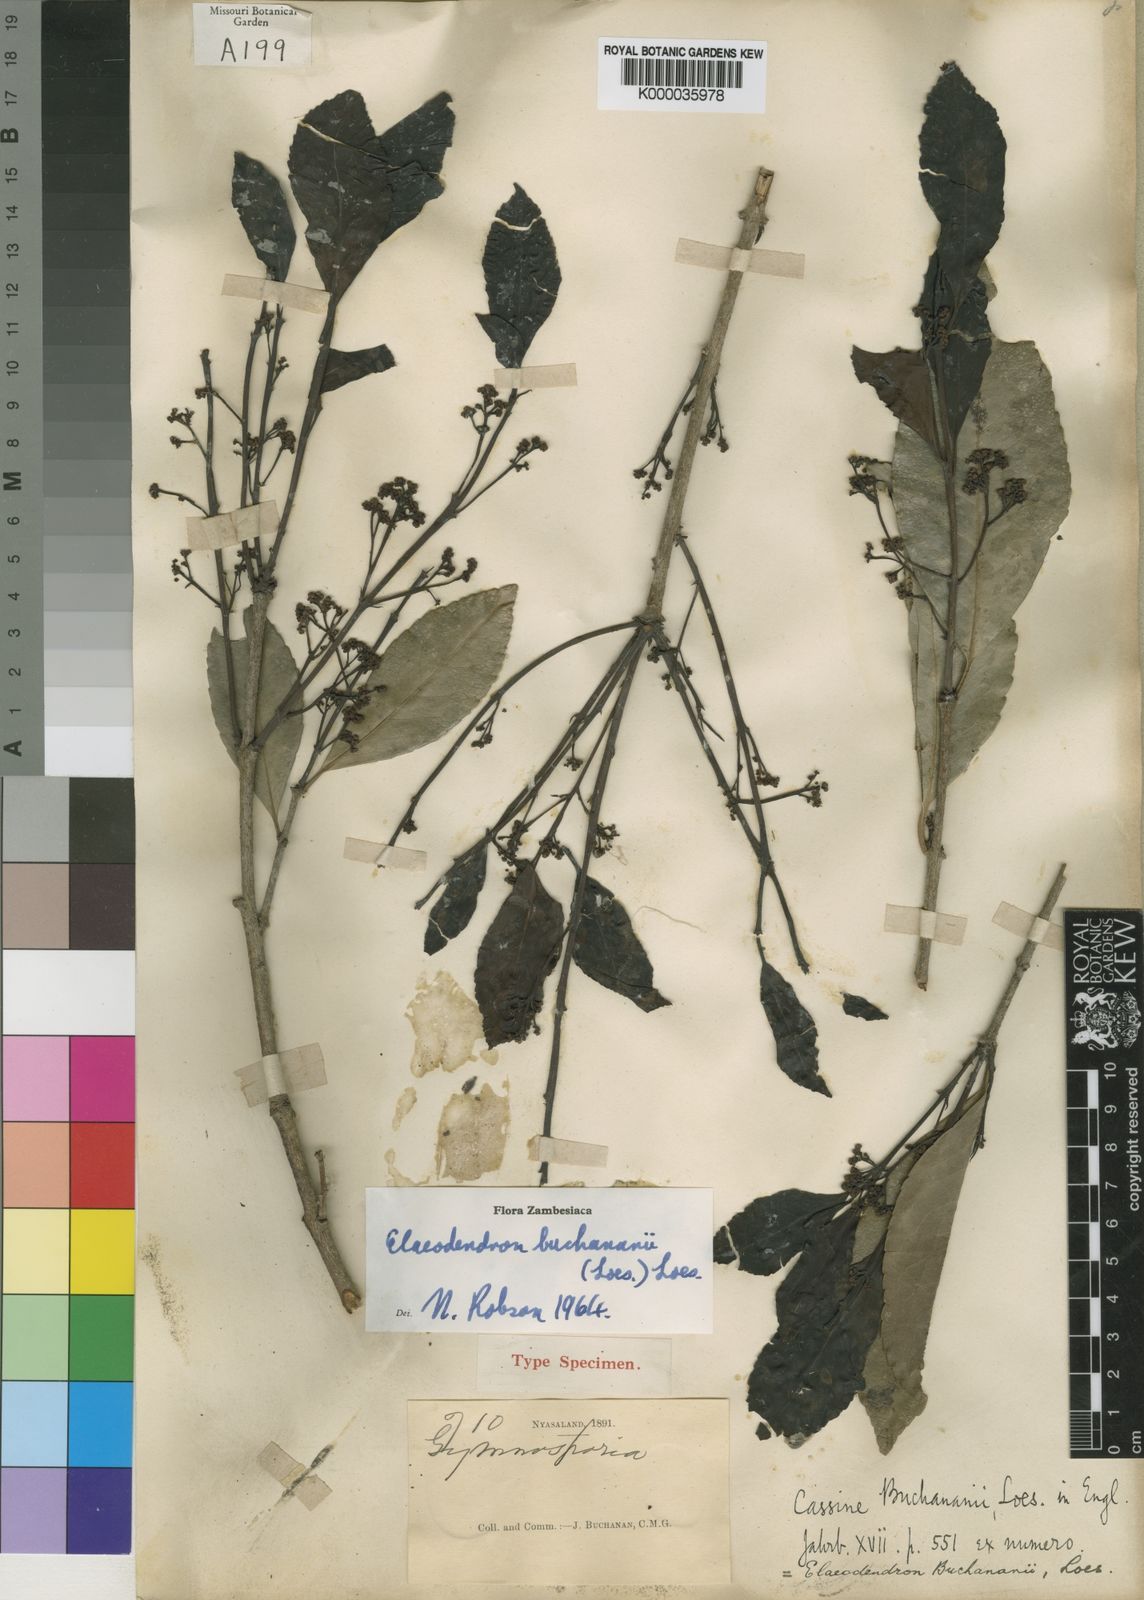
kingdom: Plantae
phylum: Tracheophyta
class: Magnoliopsida
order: Celastrales
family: Celastraceae
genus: Elaeodendron
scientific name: Elaeodendron buchananii
